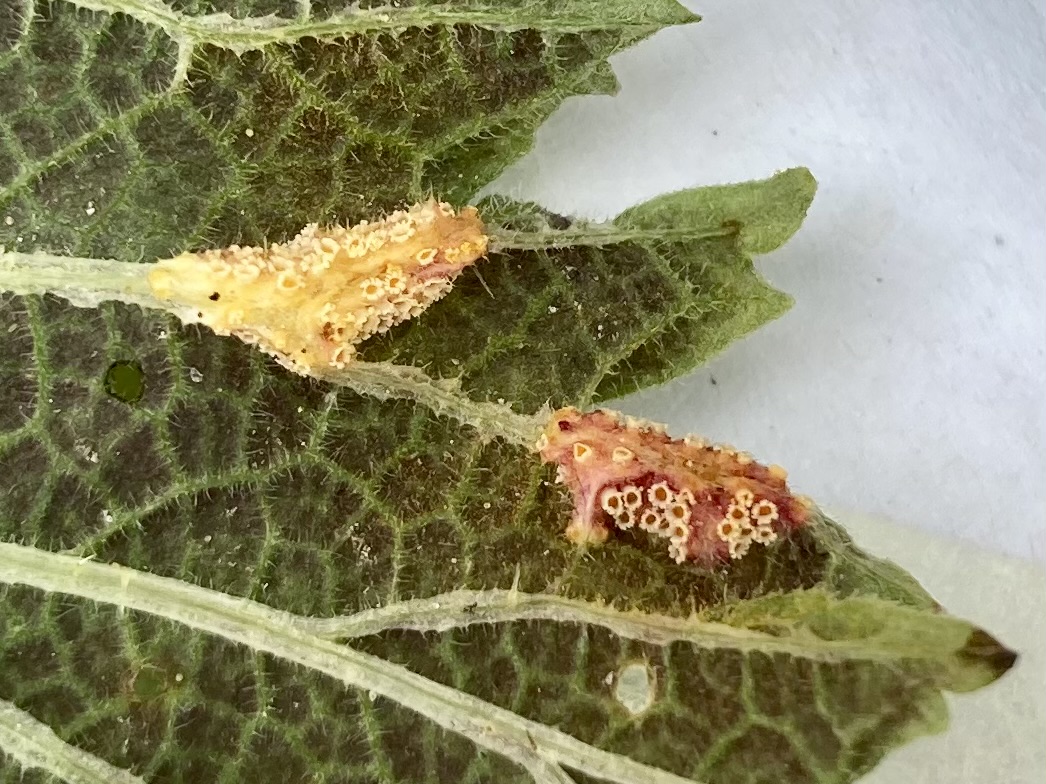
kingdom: Fungi
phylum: Basidiomycota
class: Pucciniomycetes
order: Pucciniales
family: Pucciniaceae
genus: Puccinia
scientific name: Puccinia urticata
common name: nældegalle-tvecellerust
